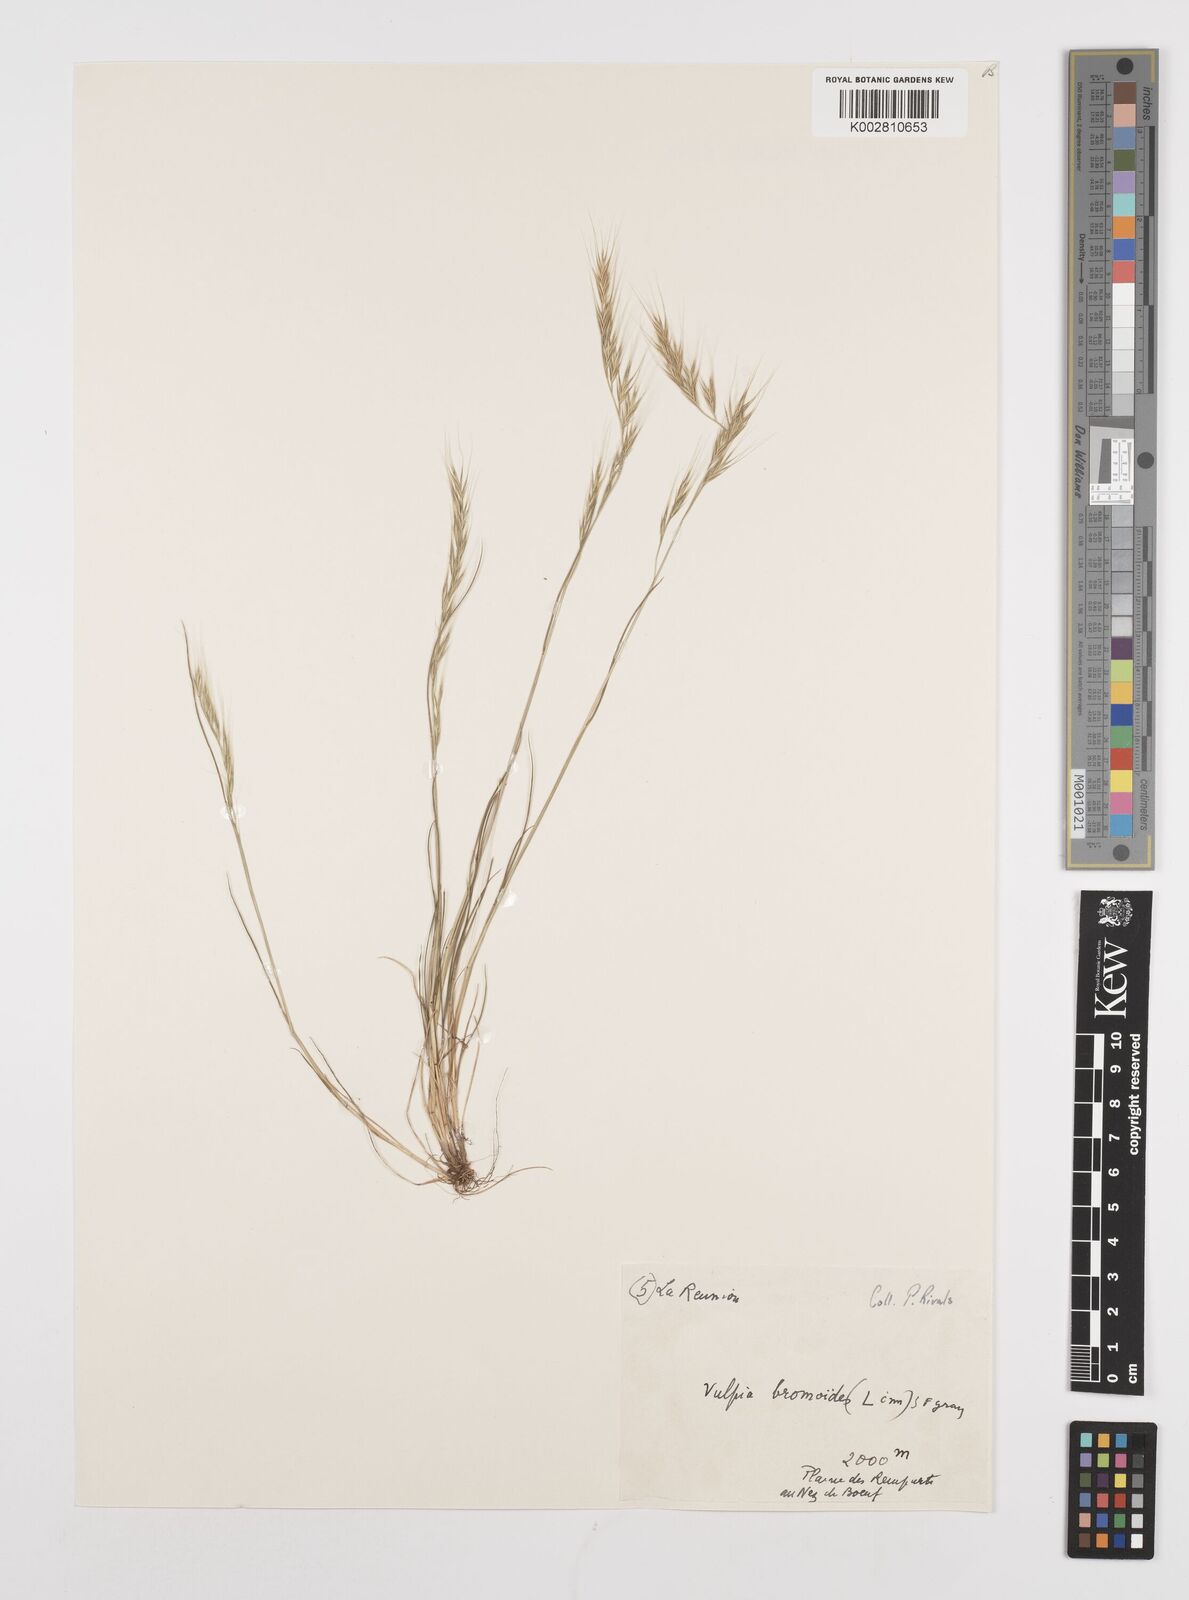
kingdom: Plantae
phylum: Tracheophyta
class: Liliopsida
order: Poales
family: Poaceae
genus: Festuca
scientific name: Festuca bromoides
